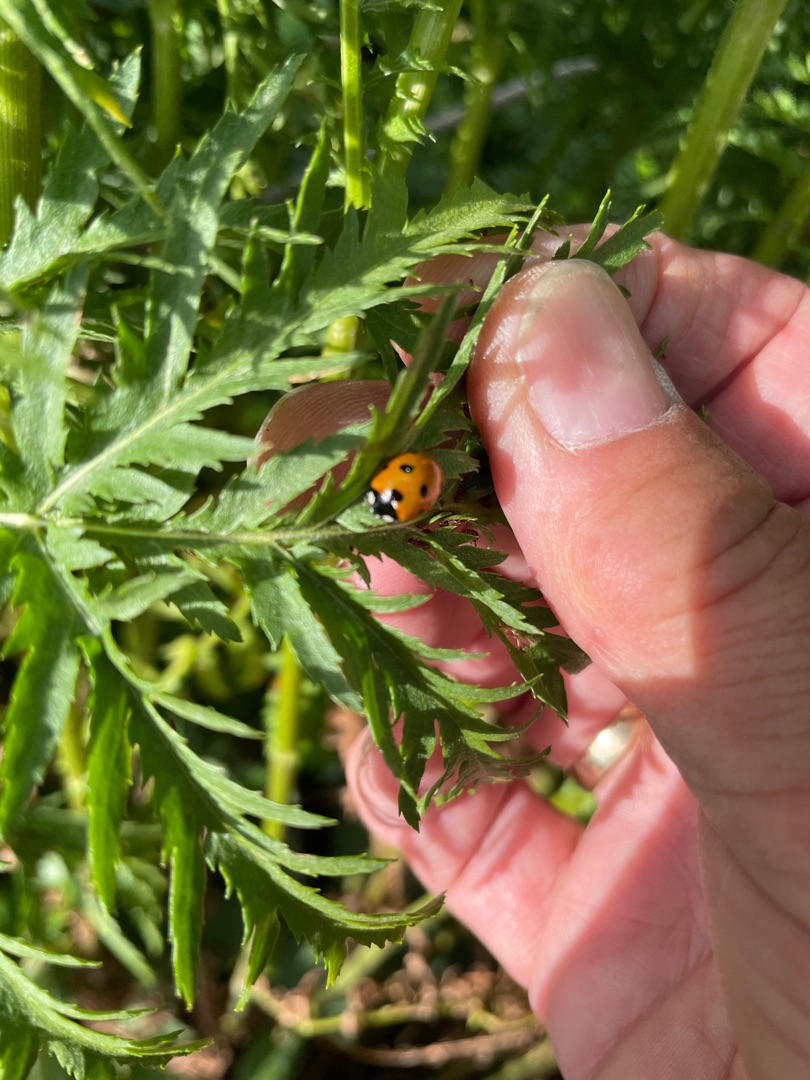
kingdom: Animalia
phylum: Arthropoda
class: Insecta
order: Coleoptera
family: Coccinellidae
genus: Coccinella
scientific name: Coccinella septempunctata
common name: Syvplettet mariehøne
